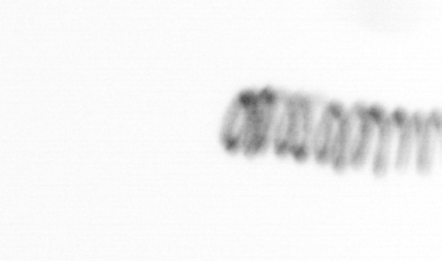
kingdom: Chromista
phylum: Ochrophyta
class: Bacillariophyceae
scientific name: Bacillariophyceae
